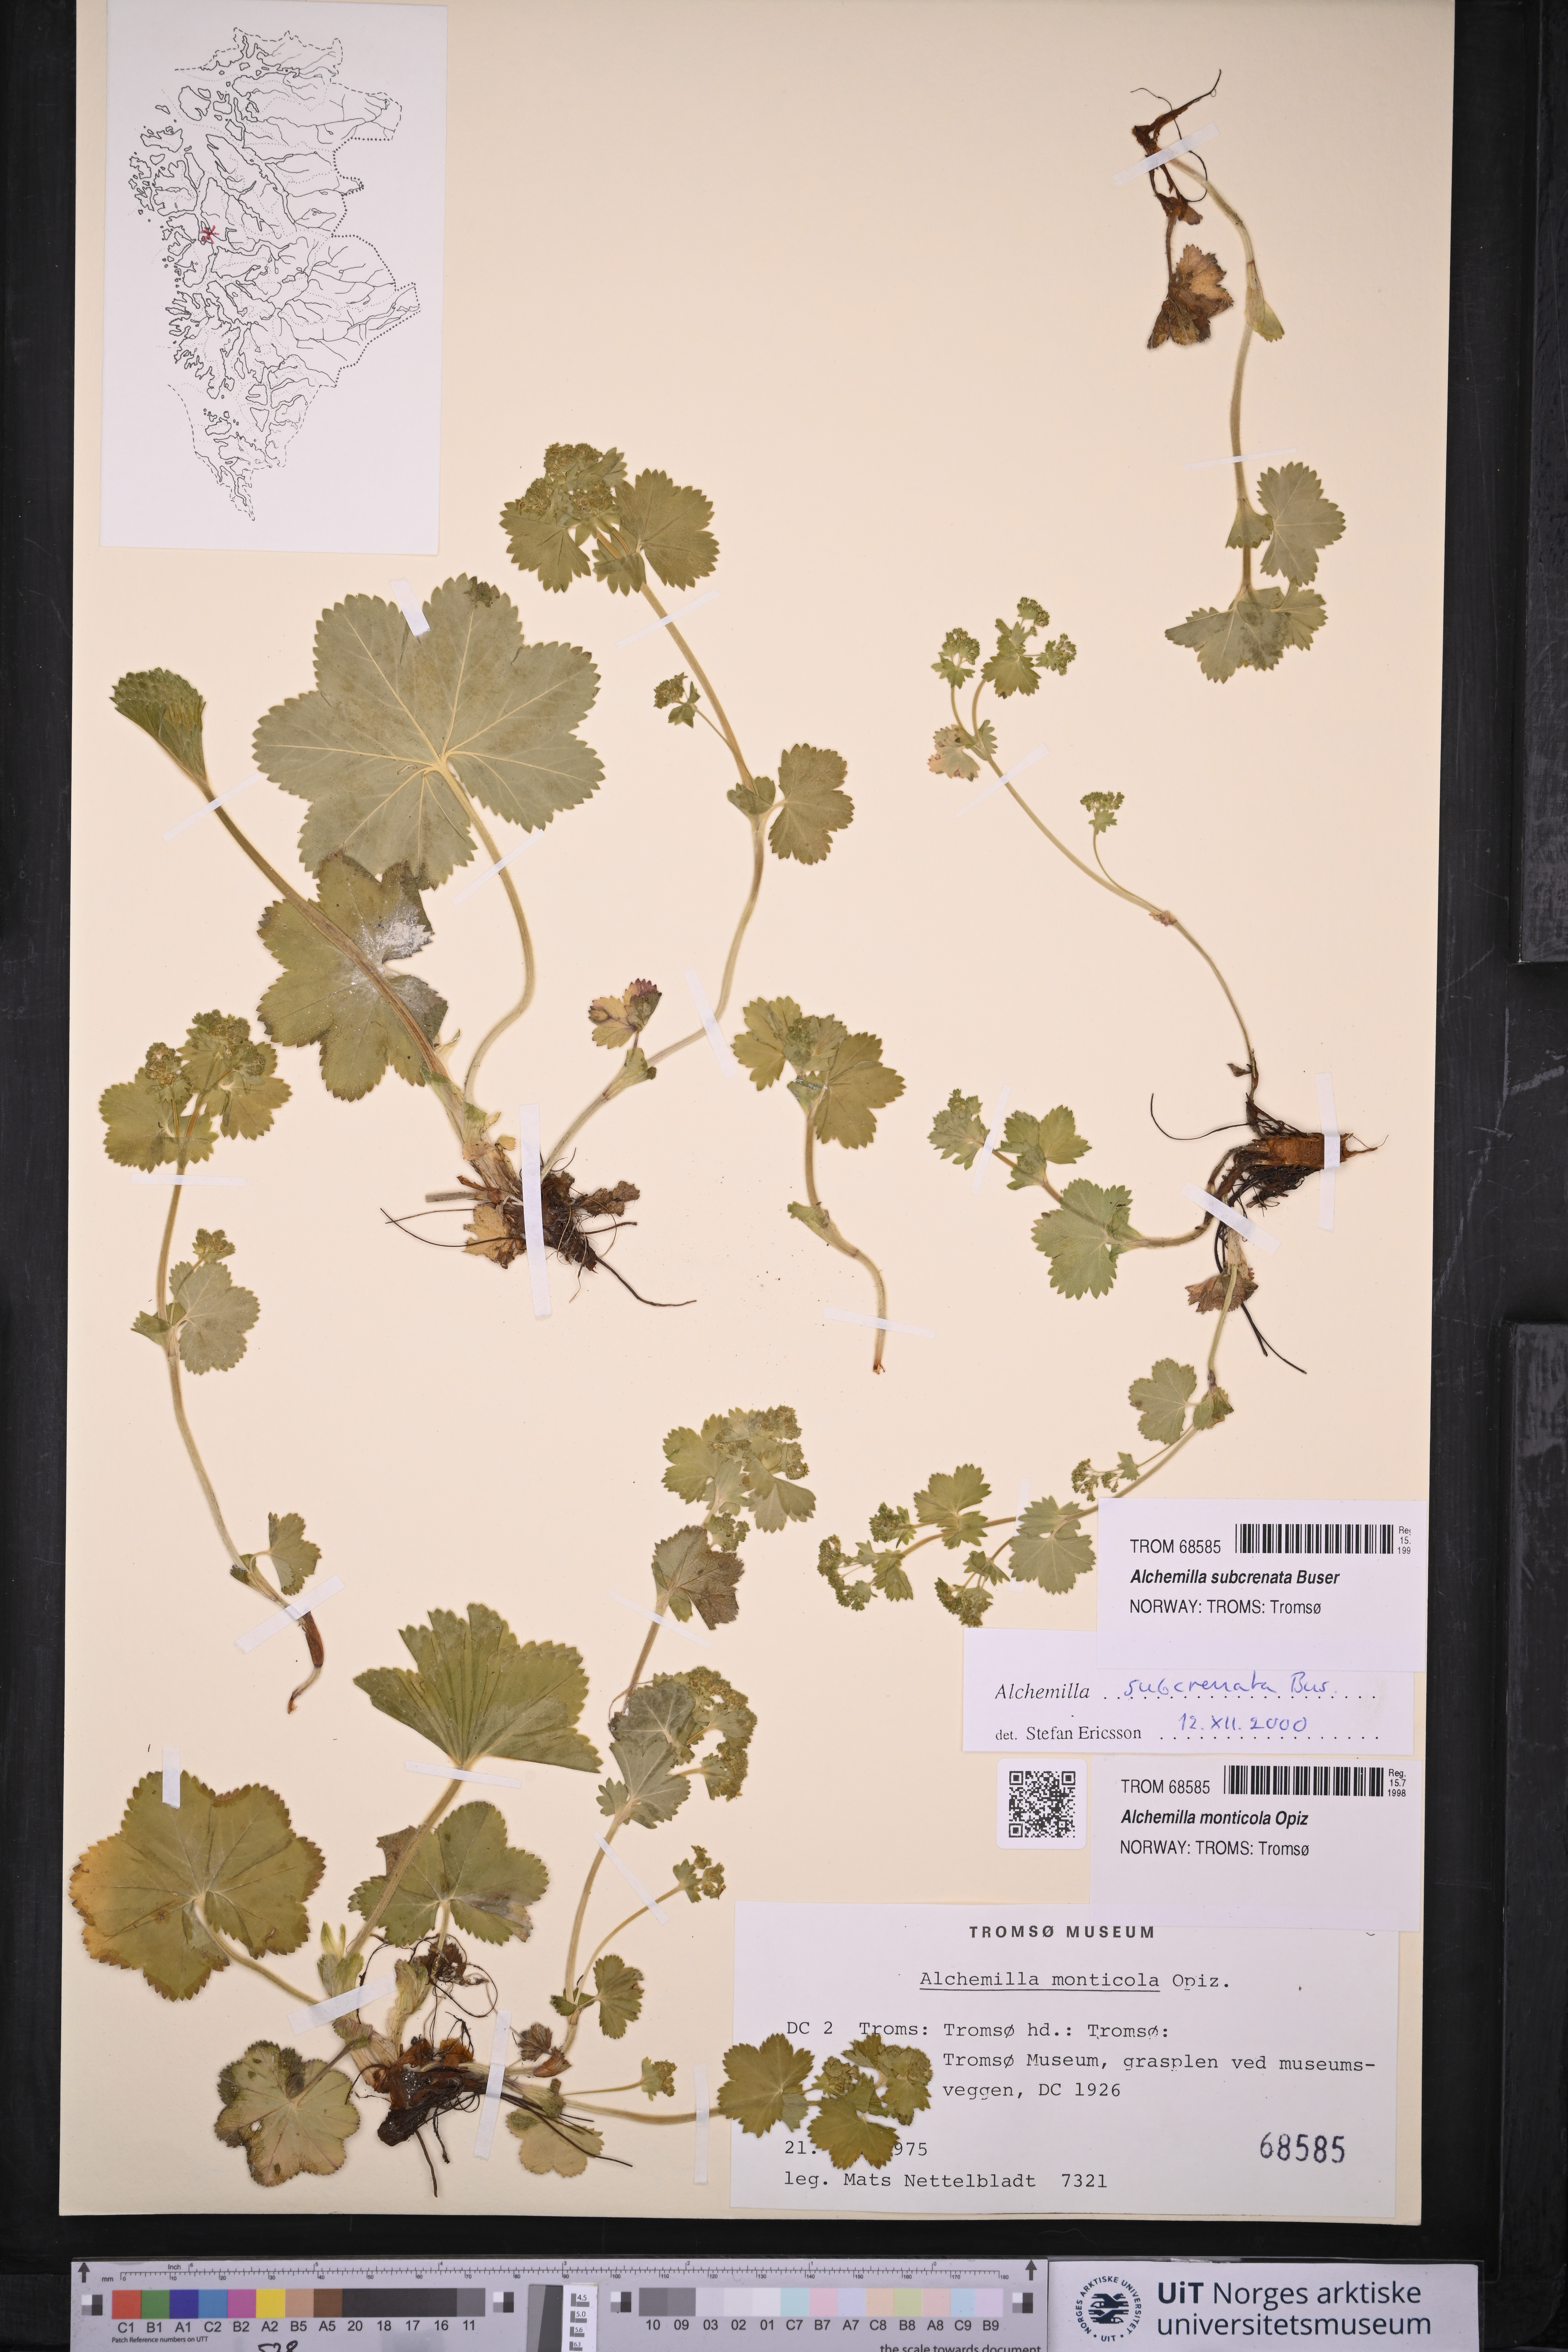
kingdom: Plantae
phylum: Tracheophyta
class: Magnoliopsida
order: Rosales
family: Rosaceae
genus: Alchemilla
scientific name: Alchemilla subcrenata
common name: Broadtooth lady's mantle
